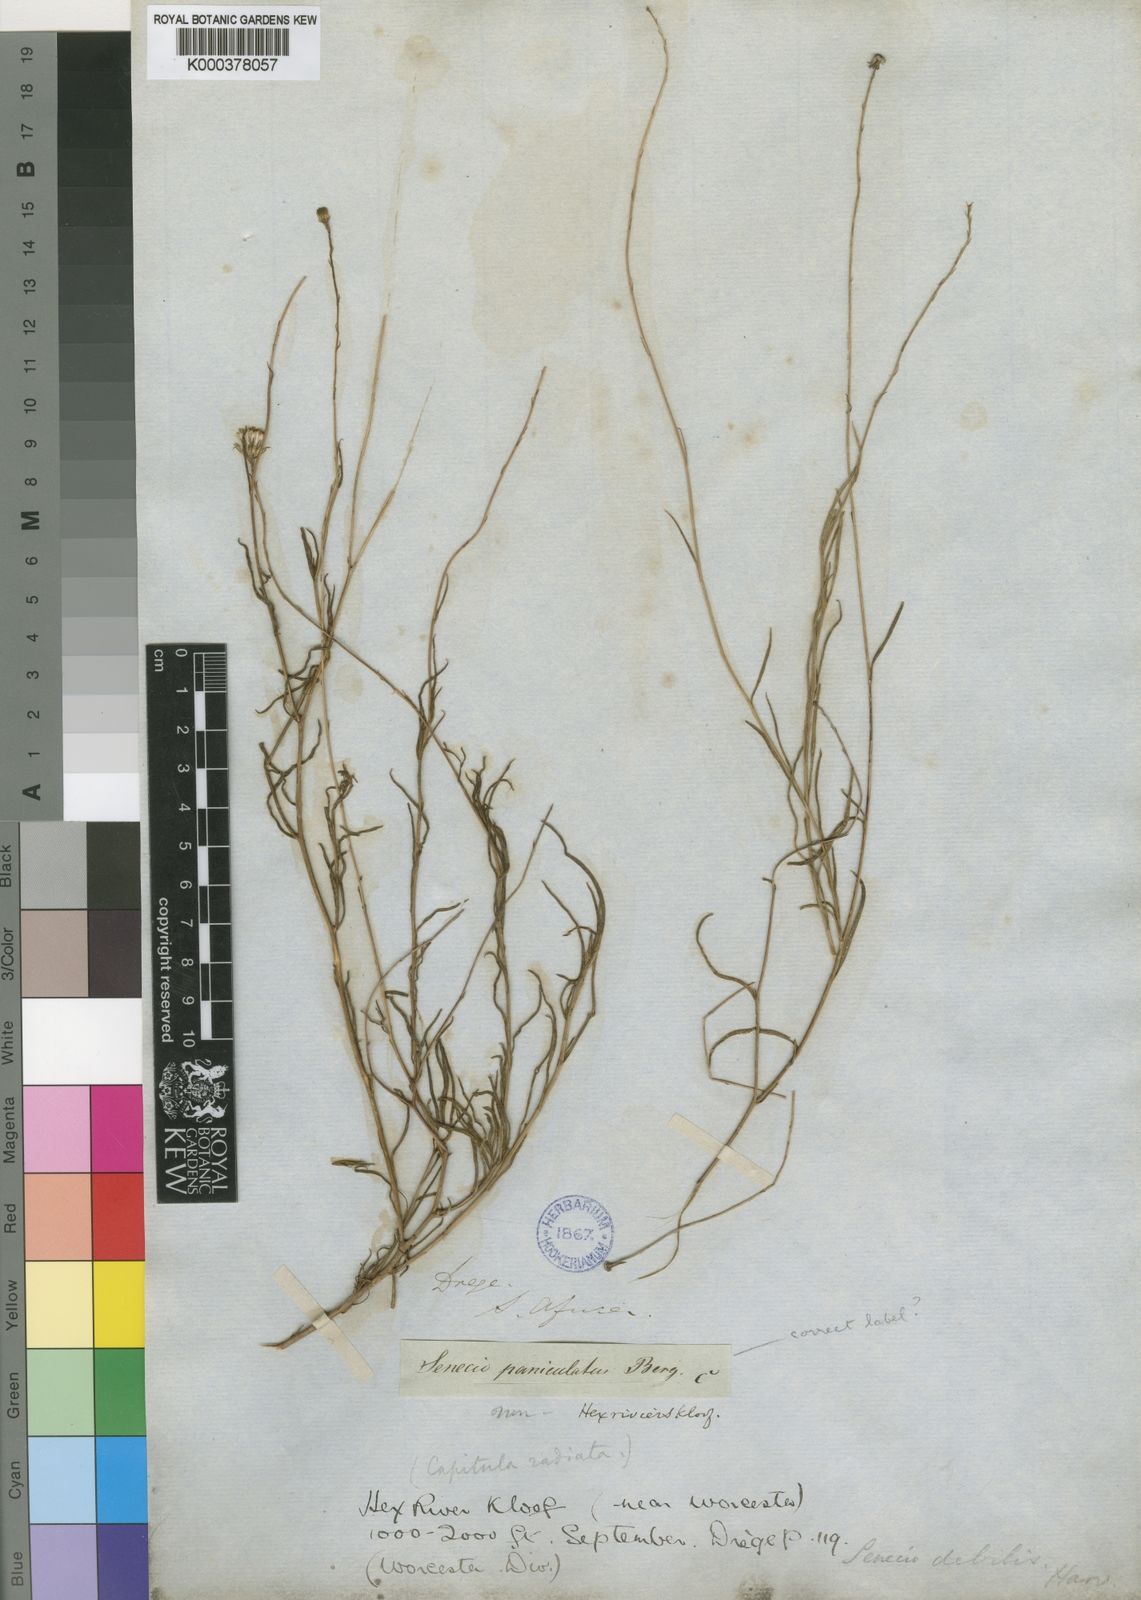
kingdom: Plantae
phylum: Tracheophyta
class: Magnoliopsida
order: Asterales
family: Asteraceae
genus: Senecio
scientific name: Senecio infirmus
